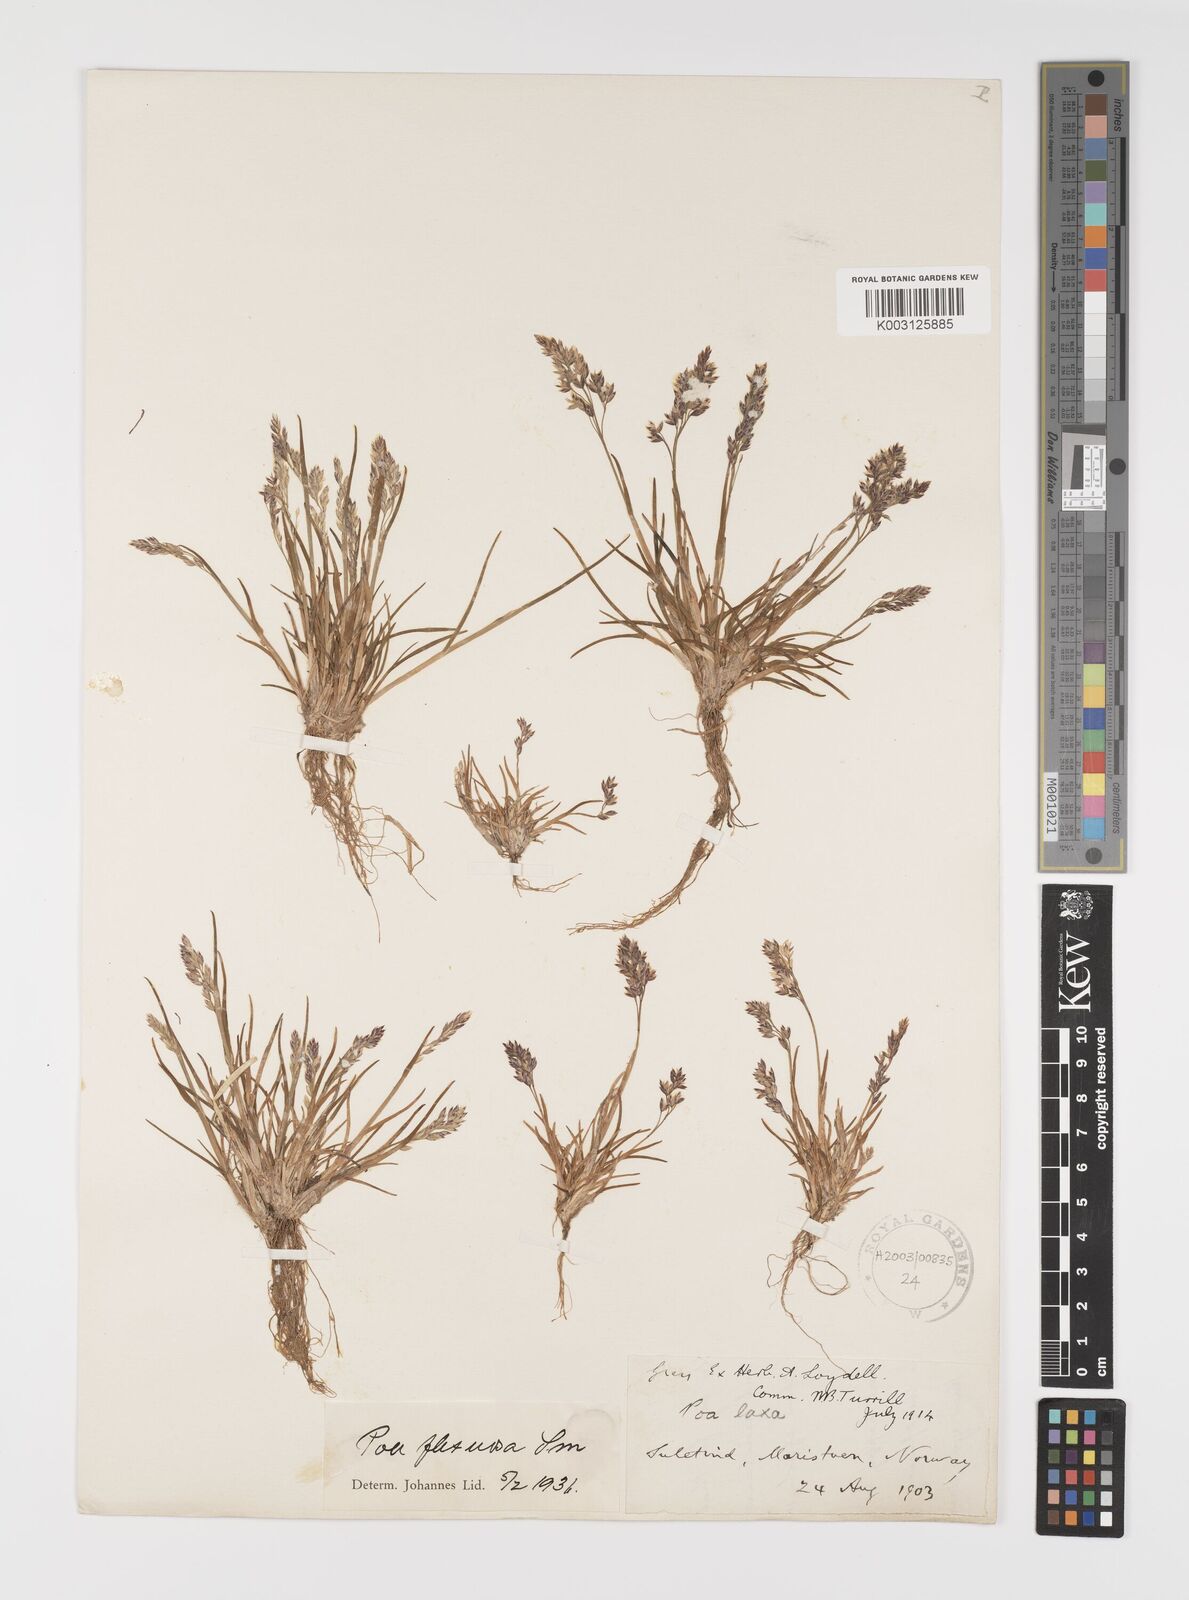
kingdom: Plantae
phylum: Tracheophyta
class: Liliopsida
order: Poales
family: Poaceae
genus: Eragrostis
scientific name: Eragrostis cilianensis
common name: Stinkgrass
